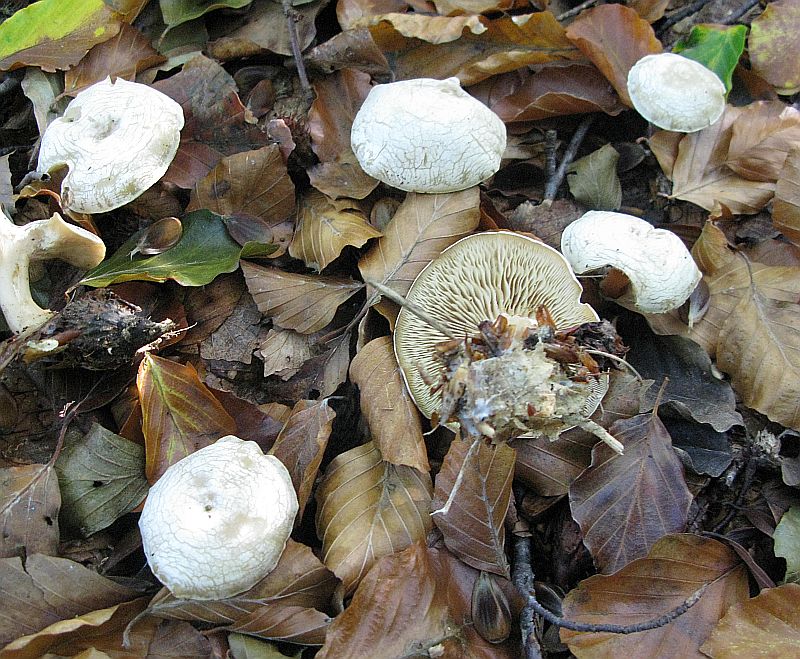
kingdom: Fungi
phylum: Basidiomycota
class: Agaricomycetes
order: Agaricales
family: Tricholomataceae
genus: Clitocybe
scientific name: Clitocybe phyllophila
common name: løv-tragthat
